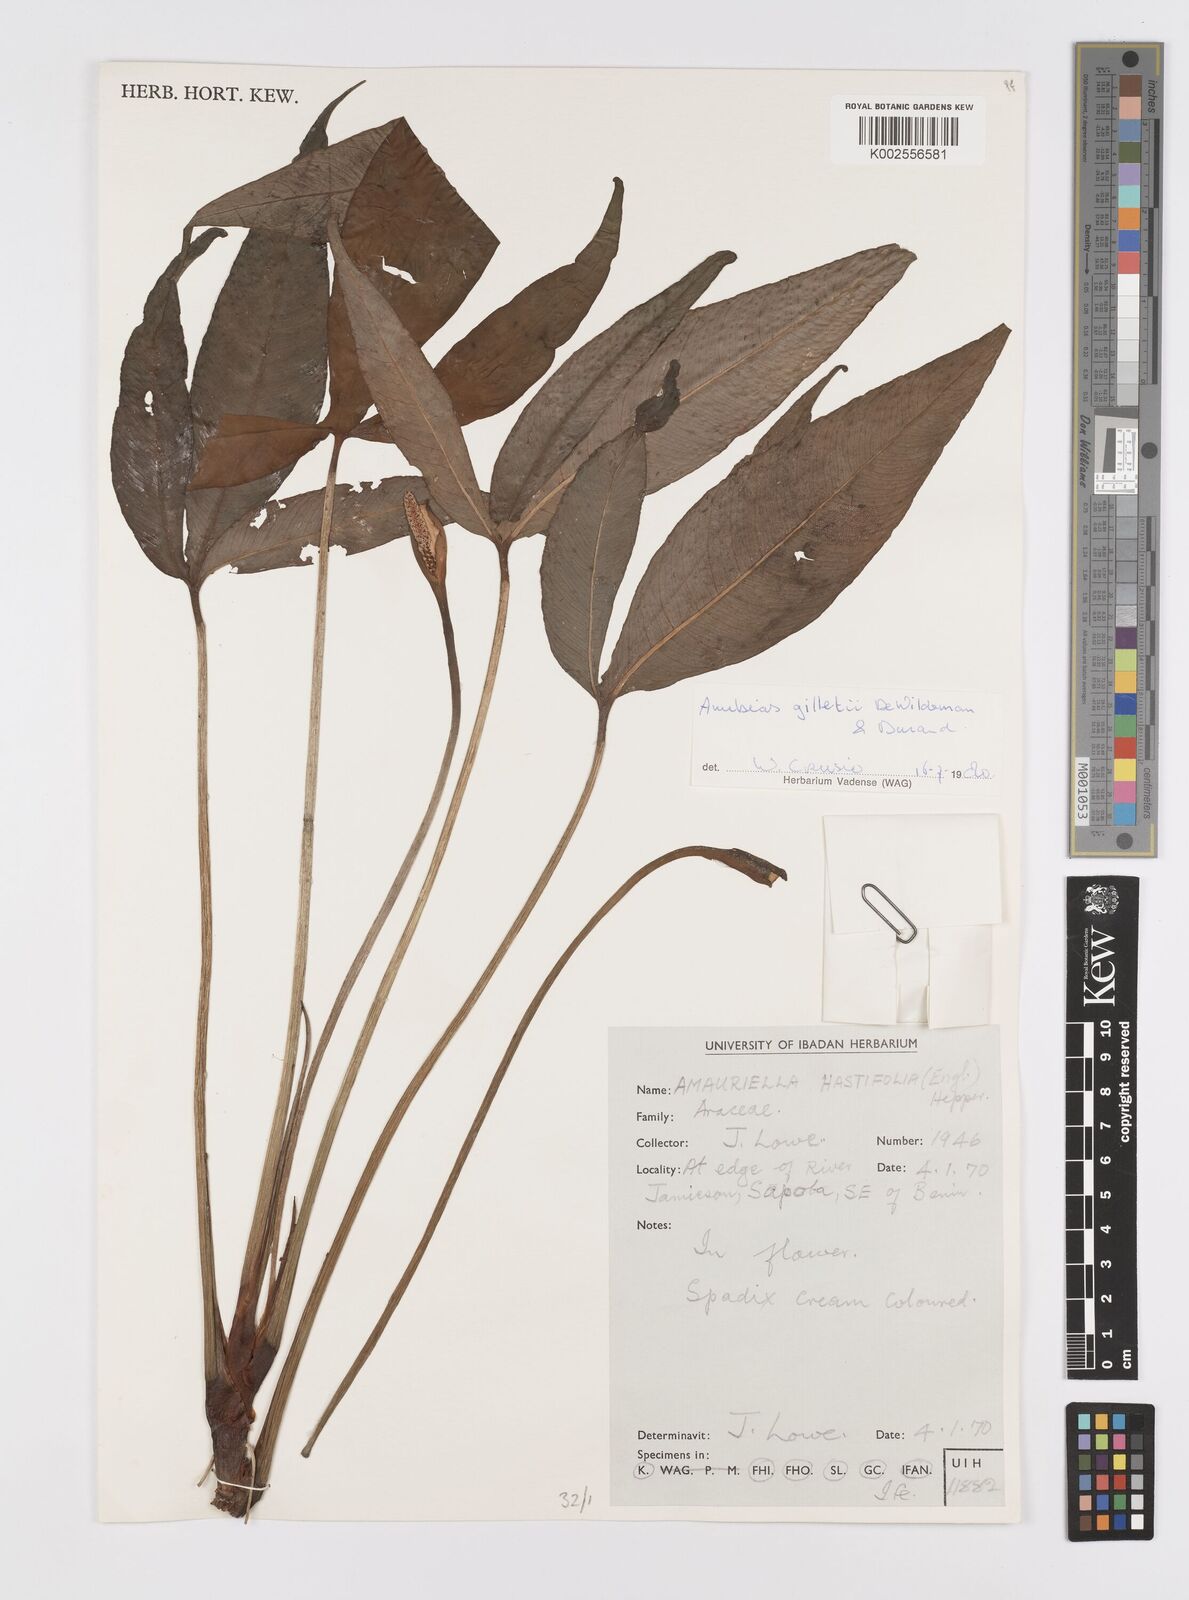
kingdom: Plantae
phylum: Tracheophyta
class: Liliopsida
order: Alismatales
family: Araceae
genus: Anubias
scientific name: Anubias gilletii
